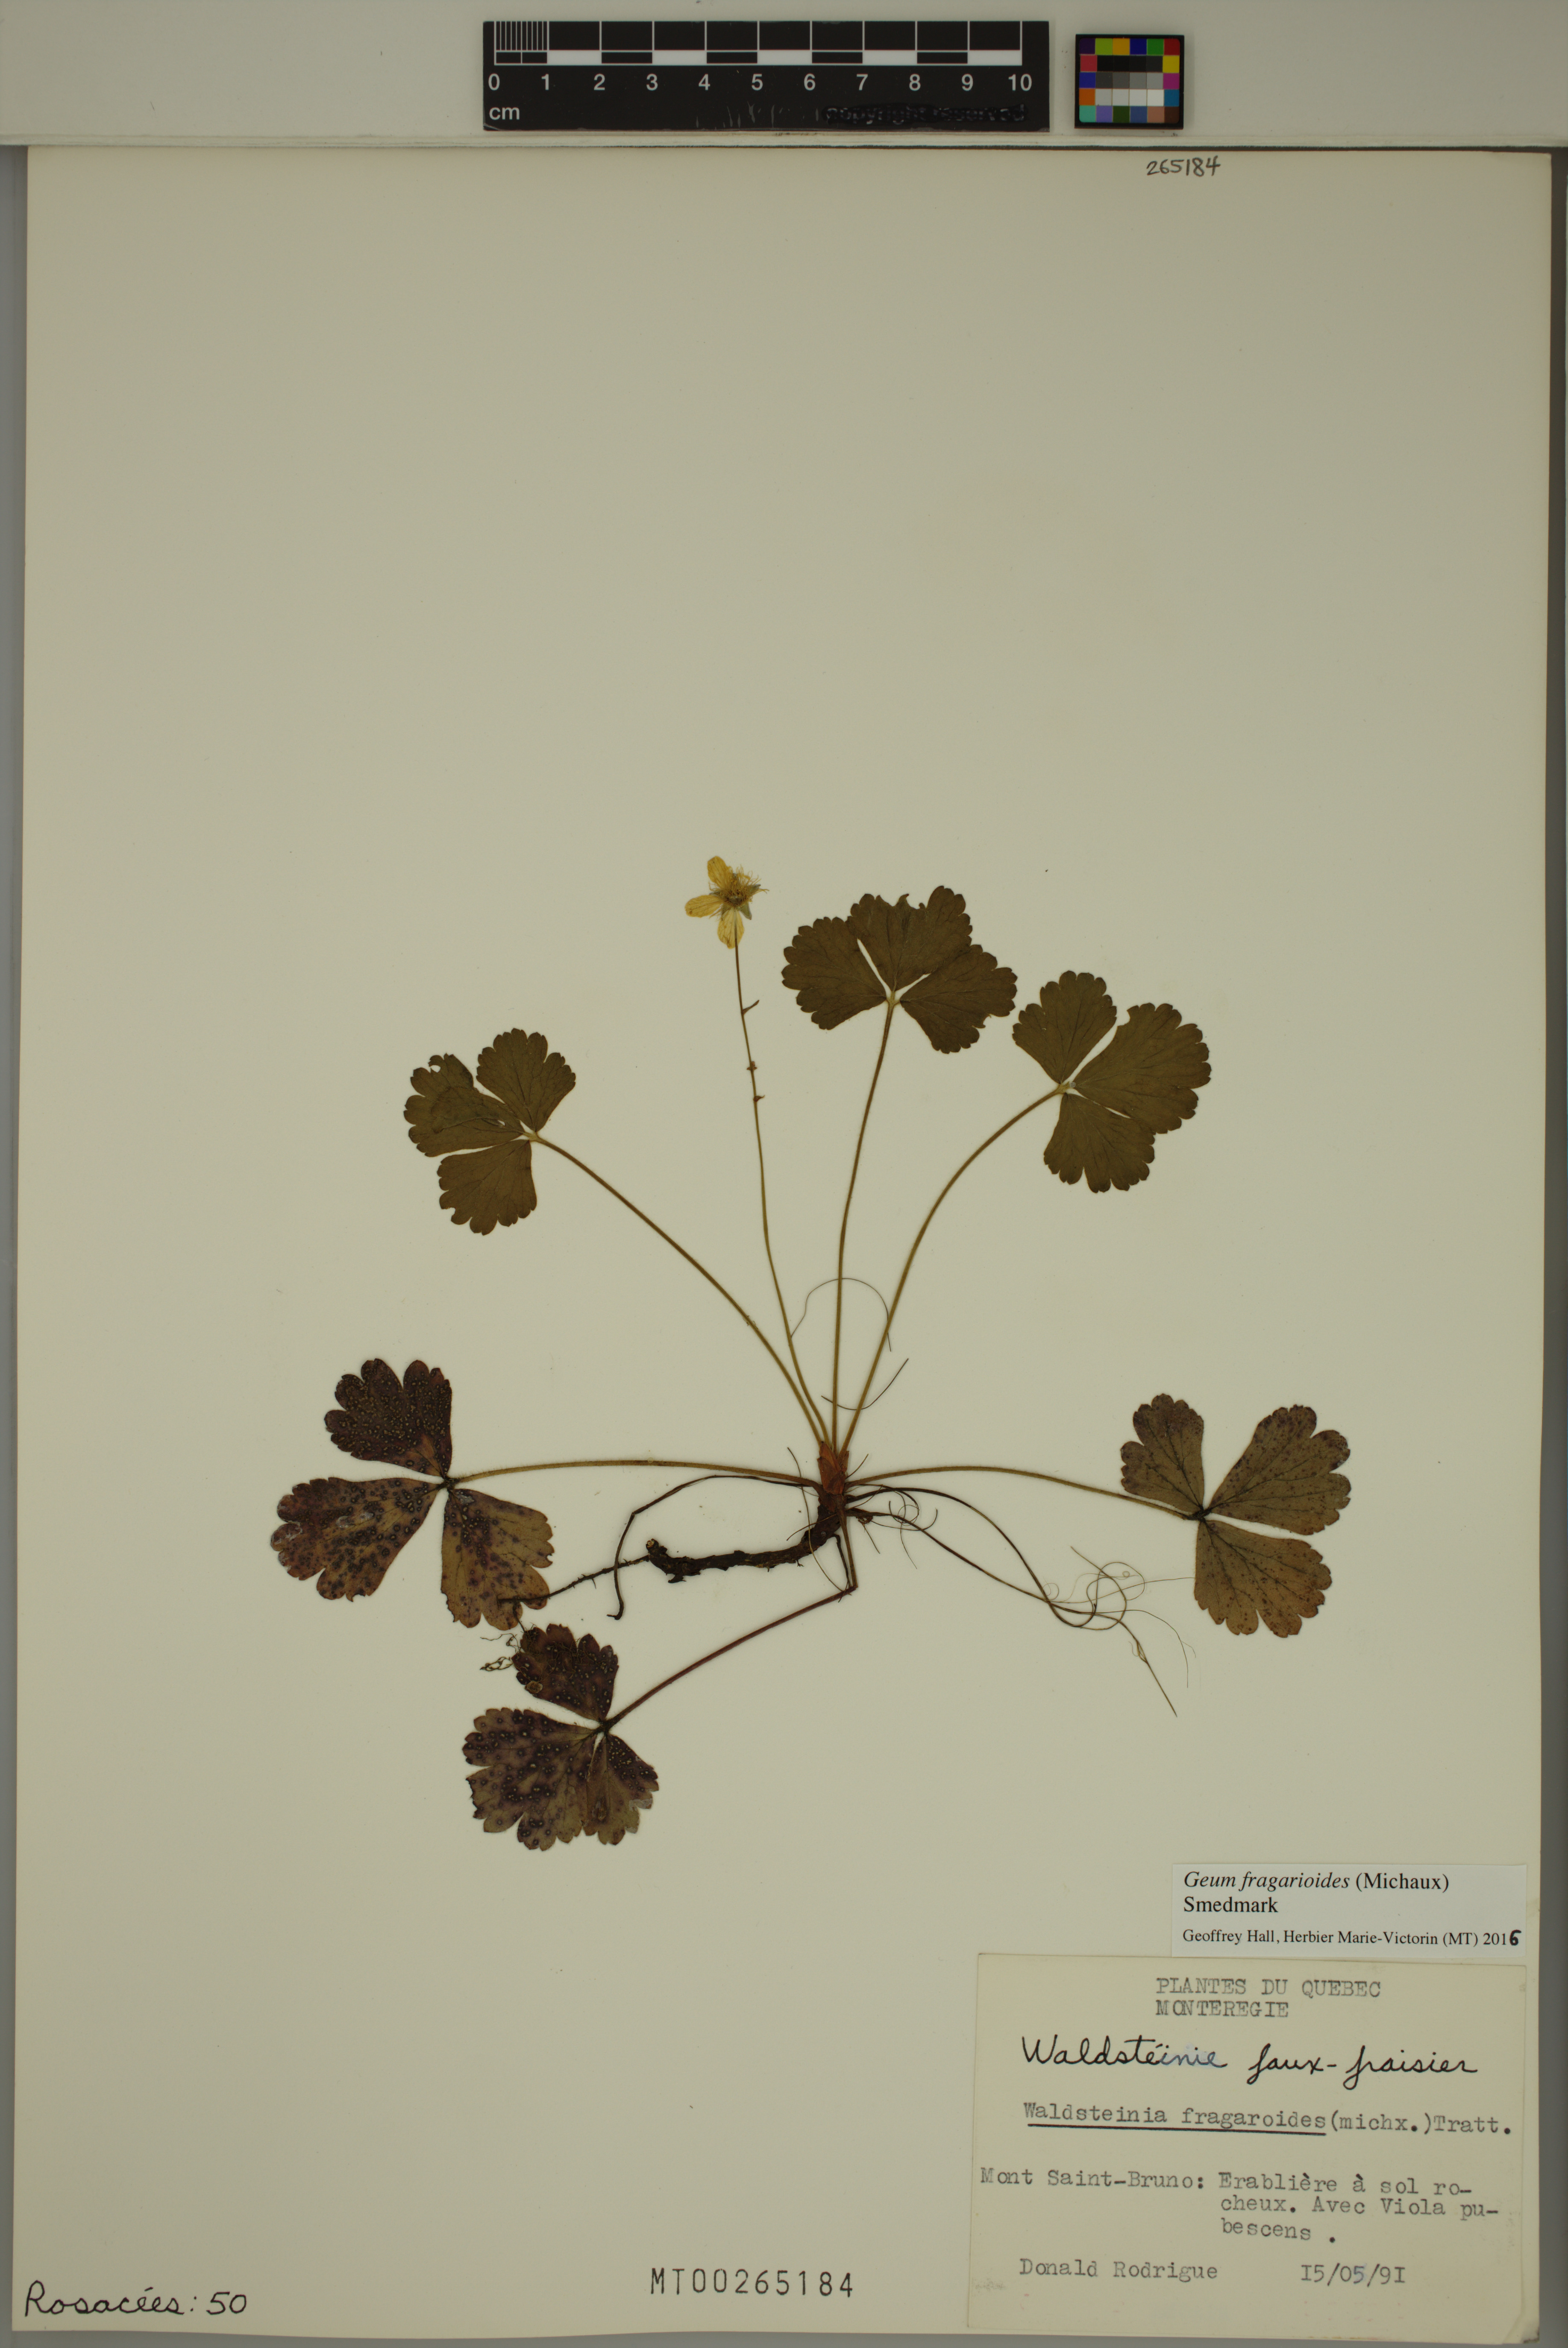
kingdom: Plantae
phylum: Tracheophyta
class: Magnoliopsida
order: Rosales
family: Rosaceae
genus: Geum
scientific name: Geum fragarioides
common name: Appalachian barren strawberry
